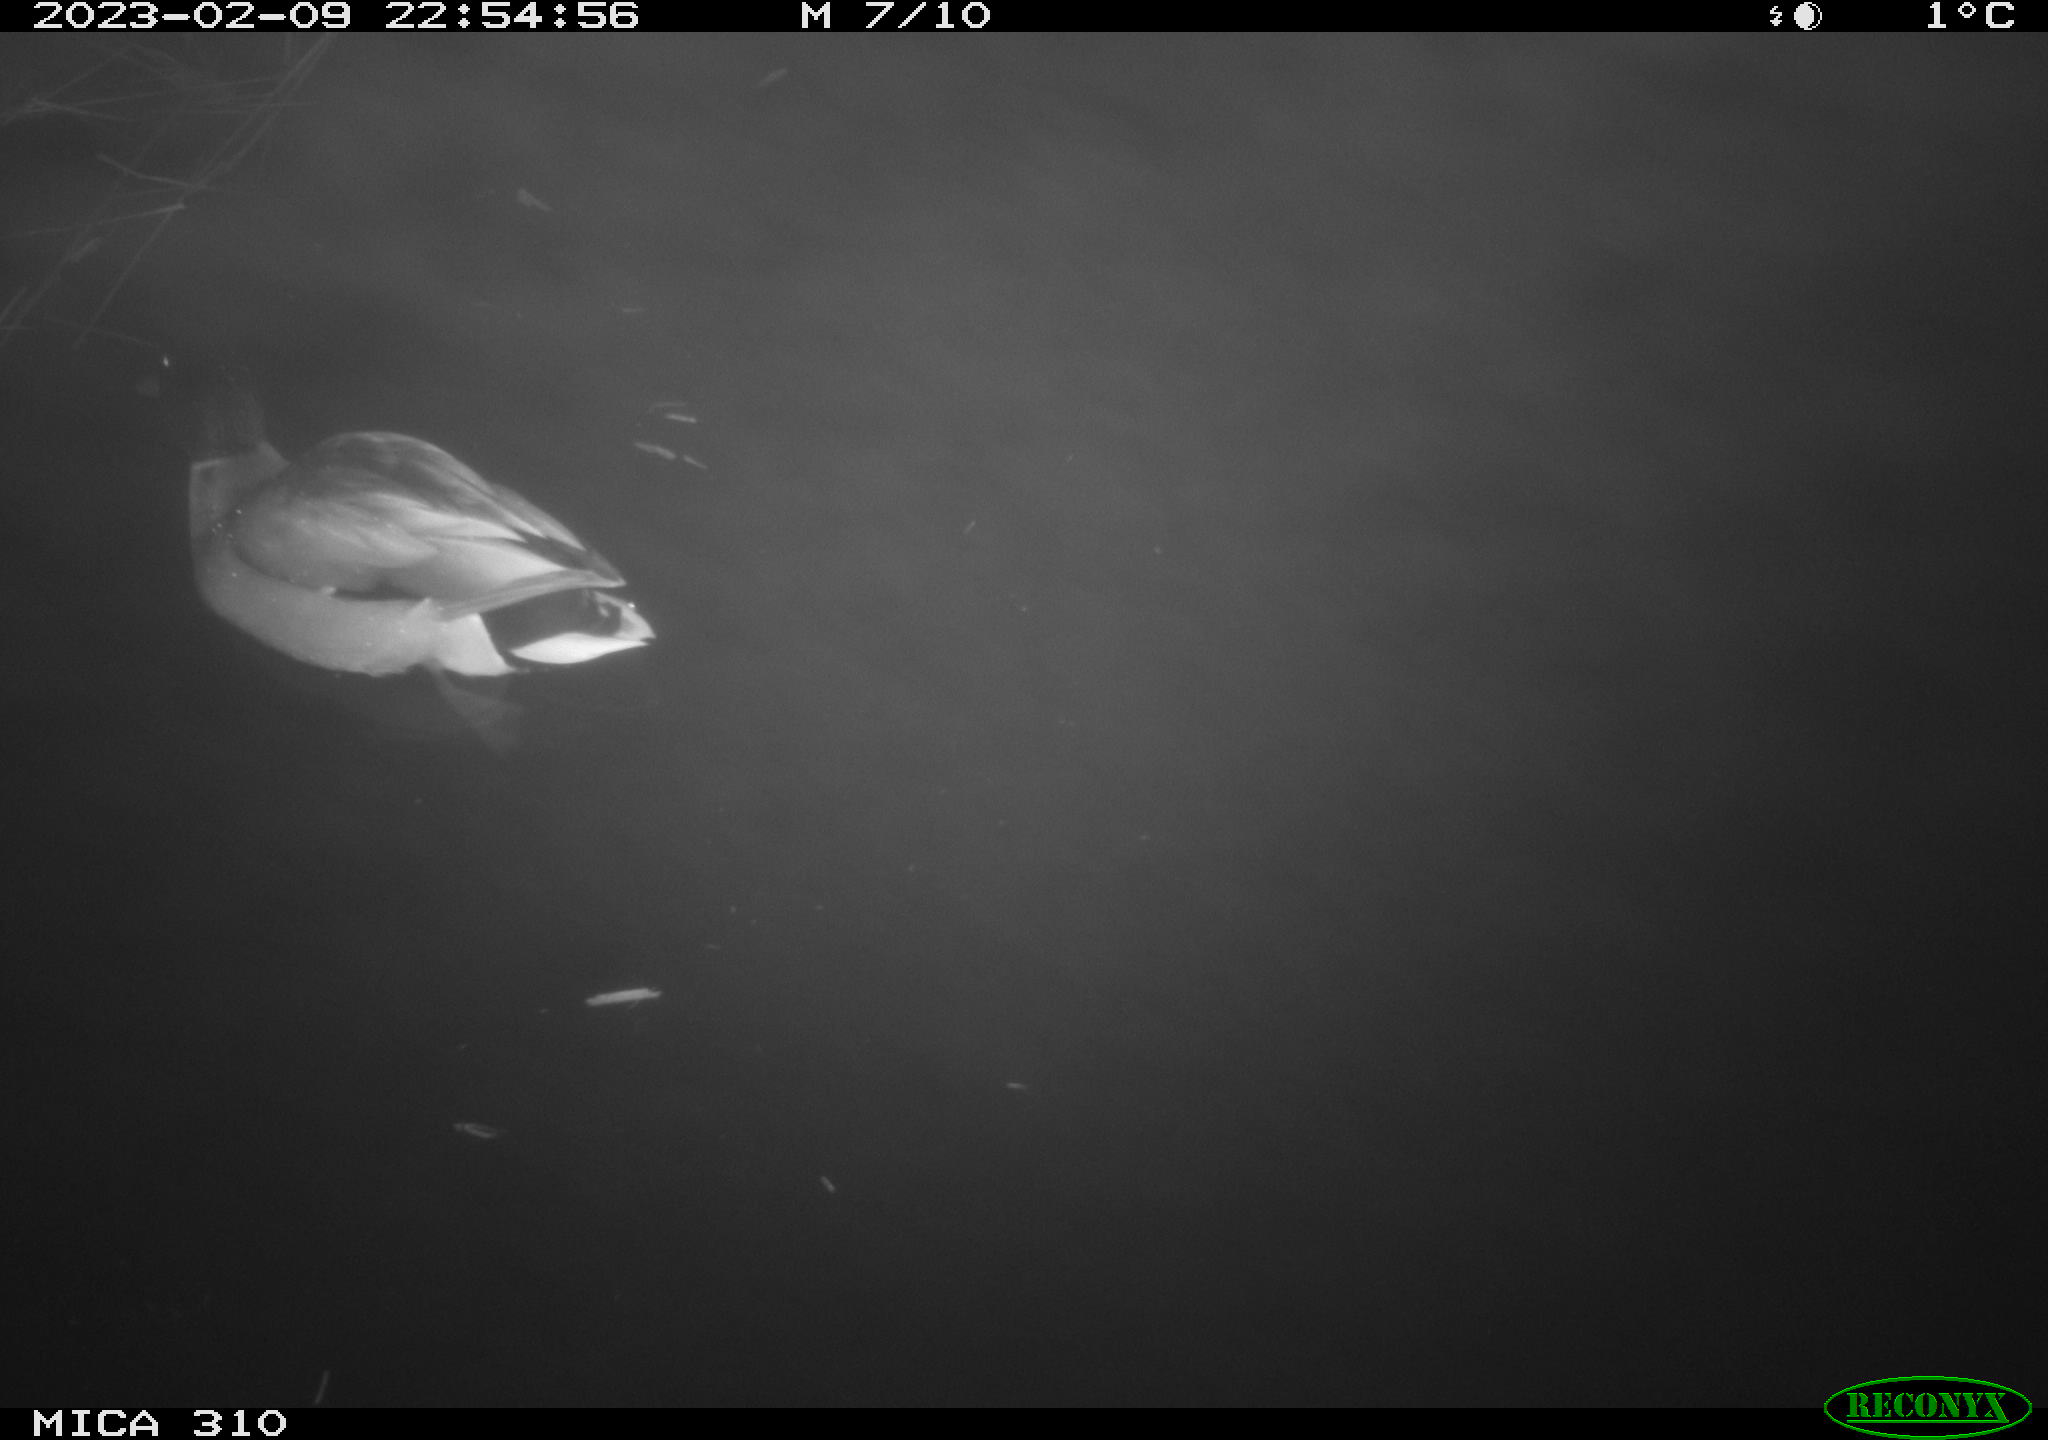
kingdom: Animalia
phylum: Chordata
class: Aves
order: Anseriformes
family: Anatidae
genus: Anas
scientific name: Anas
